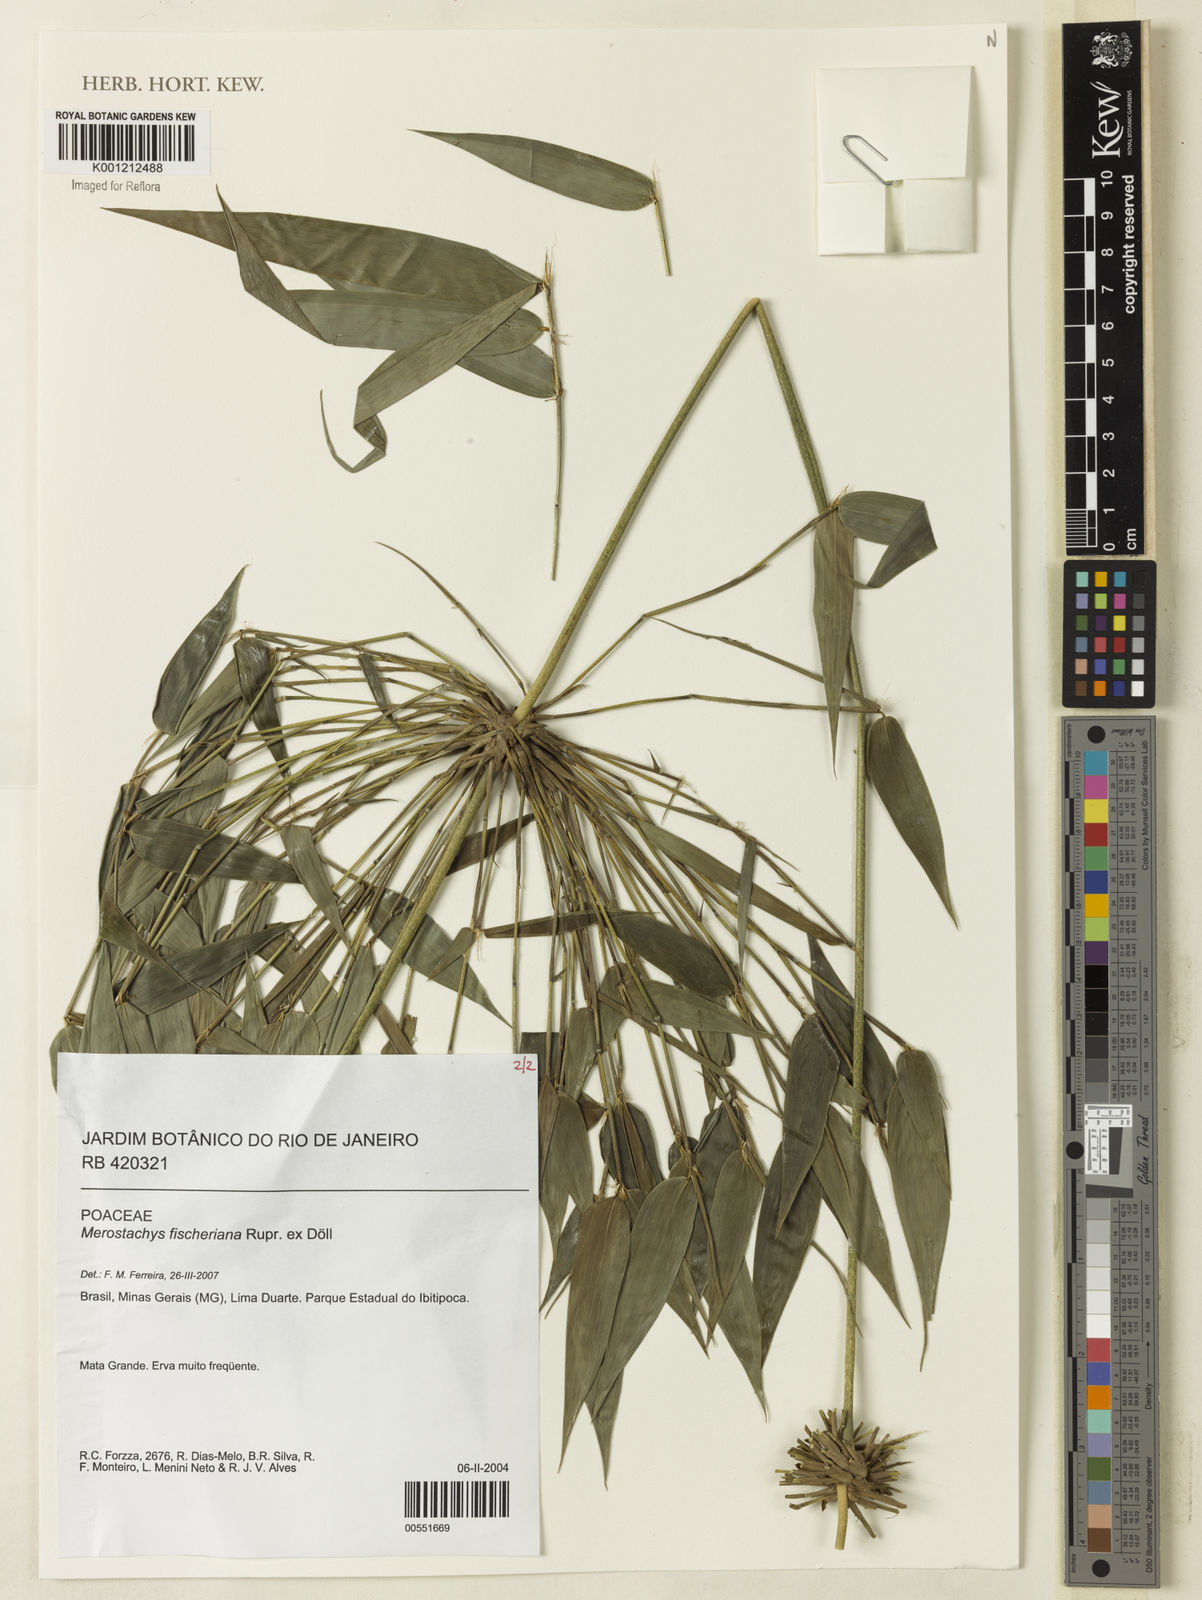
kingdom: Plantae
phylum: Tracheophyta
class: Liliopsida
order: Poales
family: Poaceae
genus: Merostachys
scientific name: Merostachys
